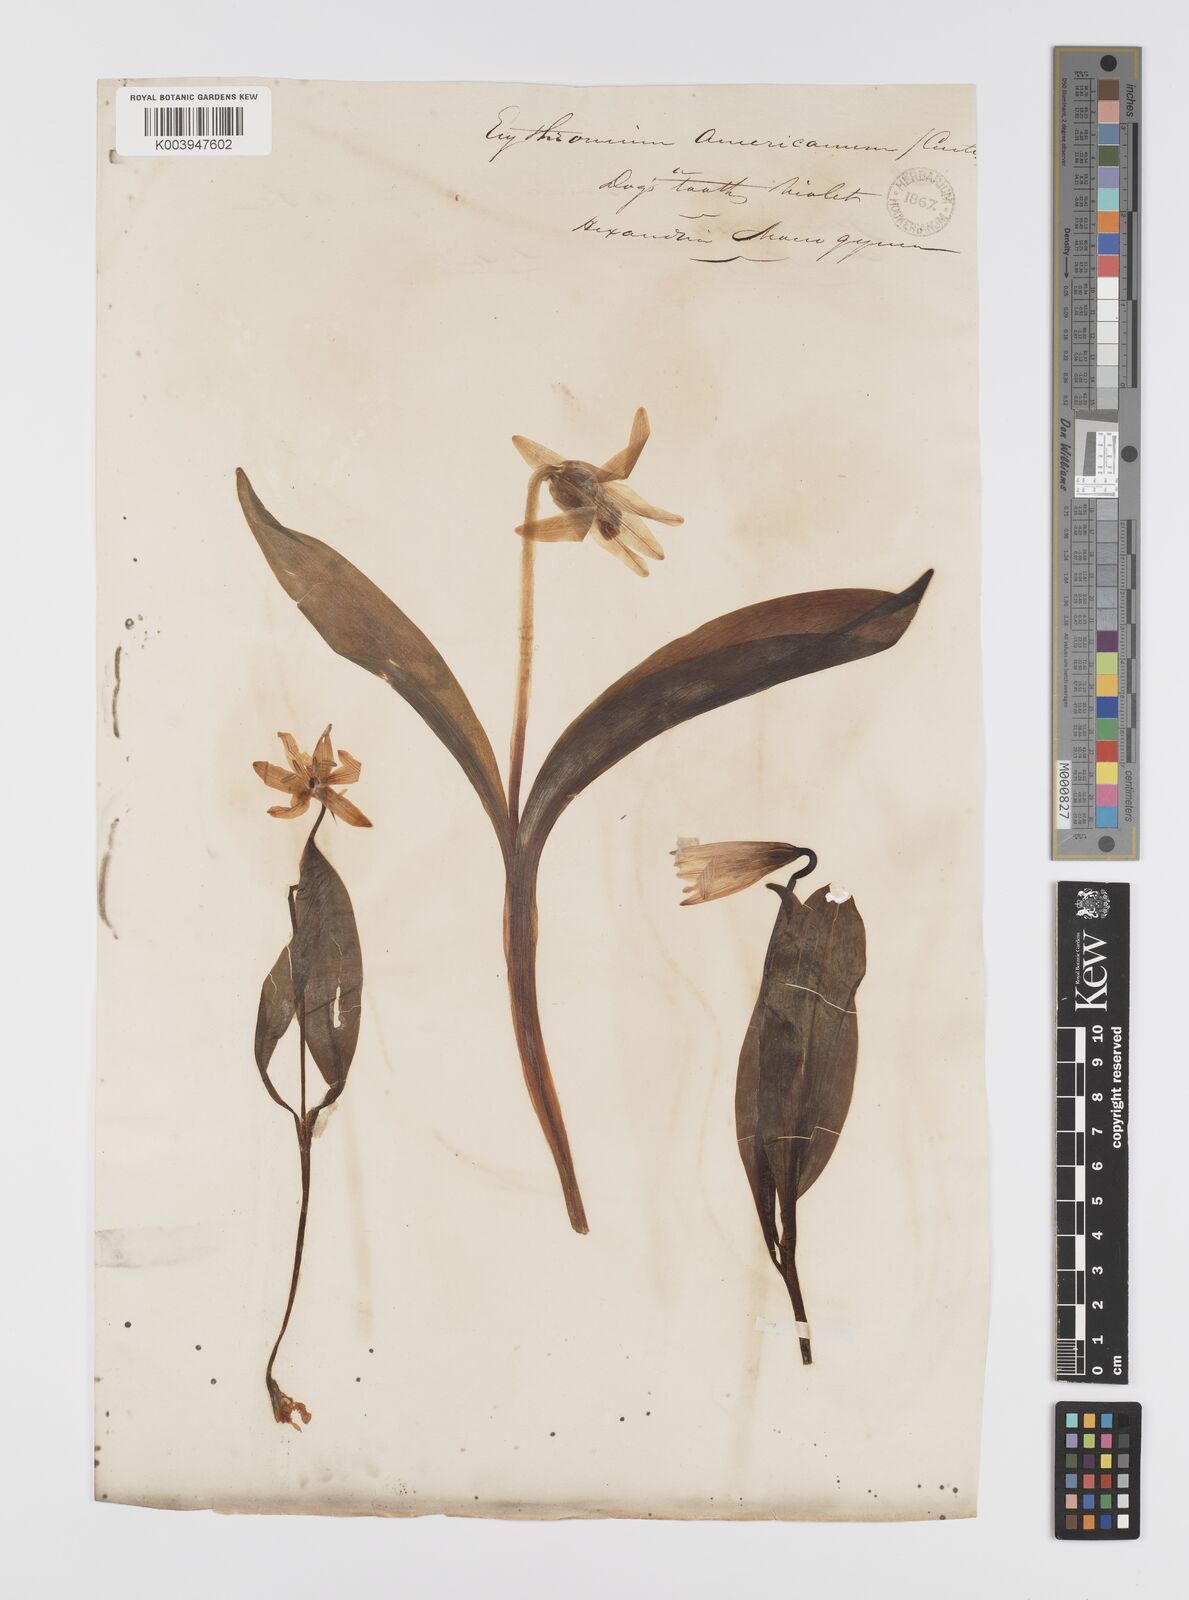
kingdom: Plantae
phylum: Tracheophyta
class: Liliopsida
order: Liliales
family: Liliaceae
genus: Erythronium
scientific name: Erythronium grandiflorum
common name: Avalanche-lily
